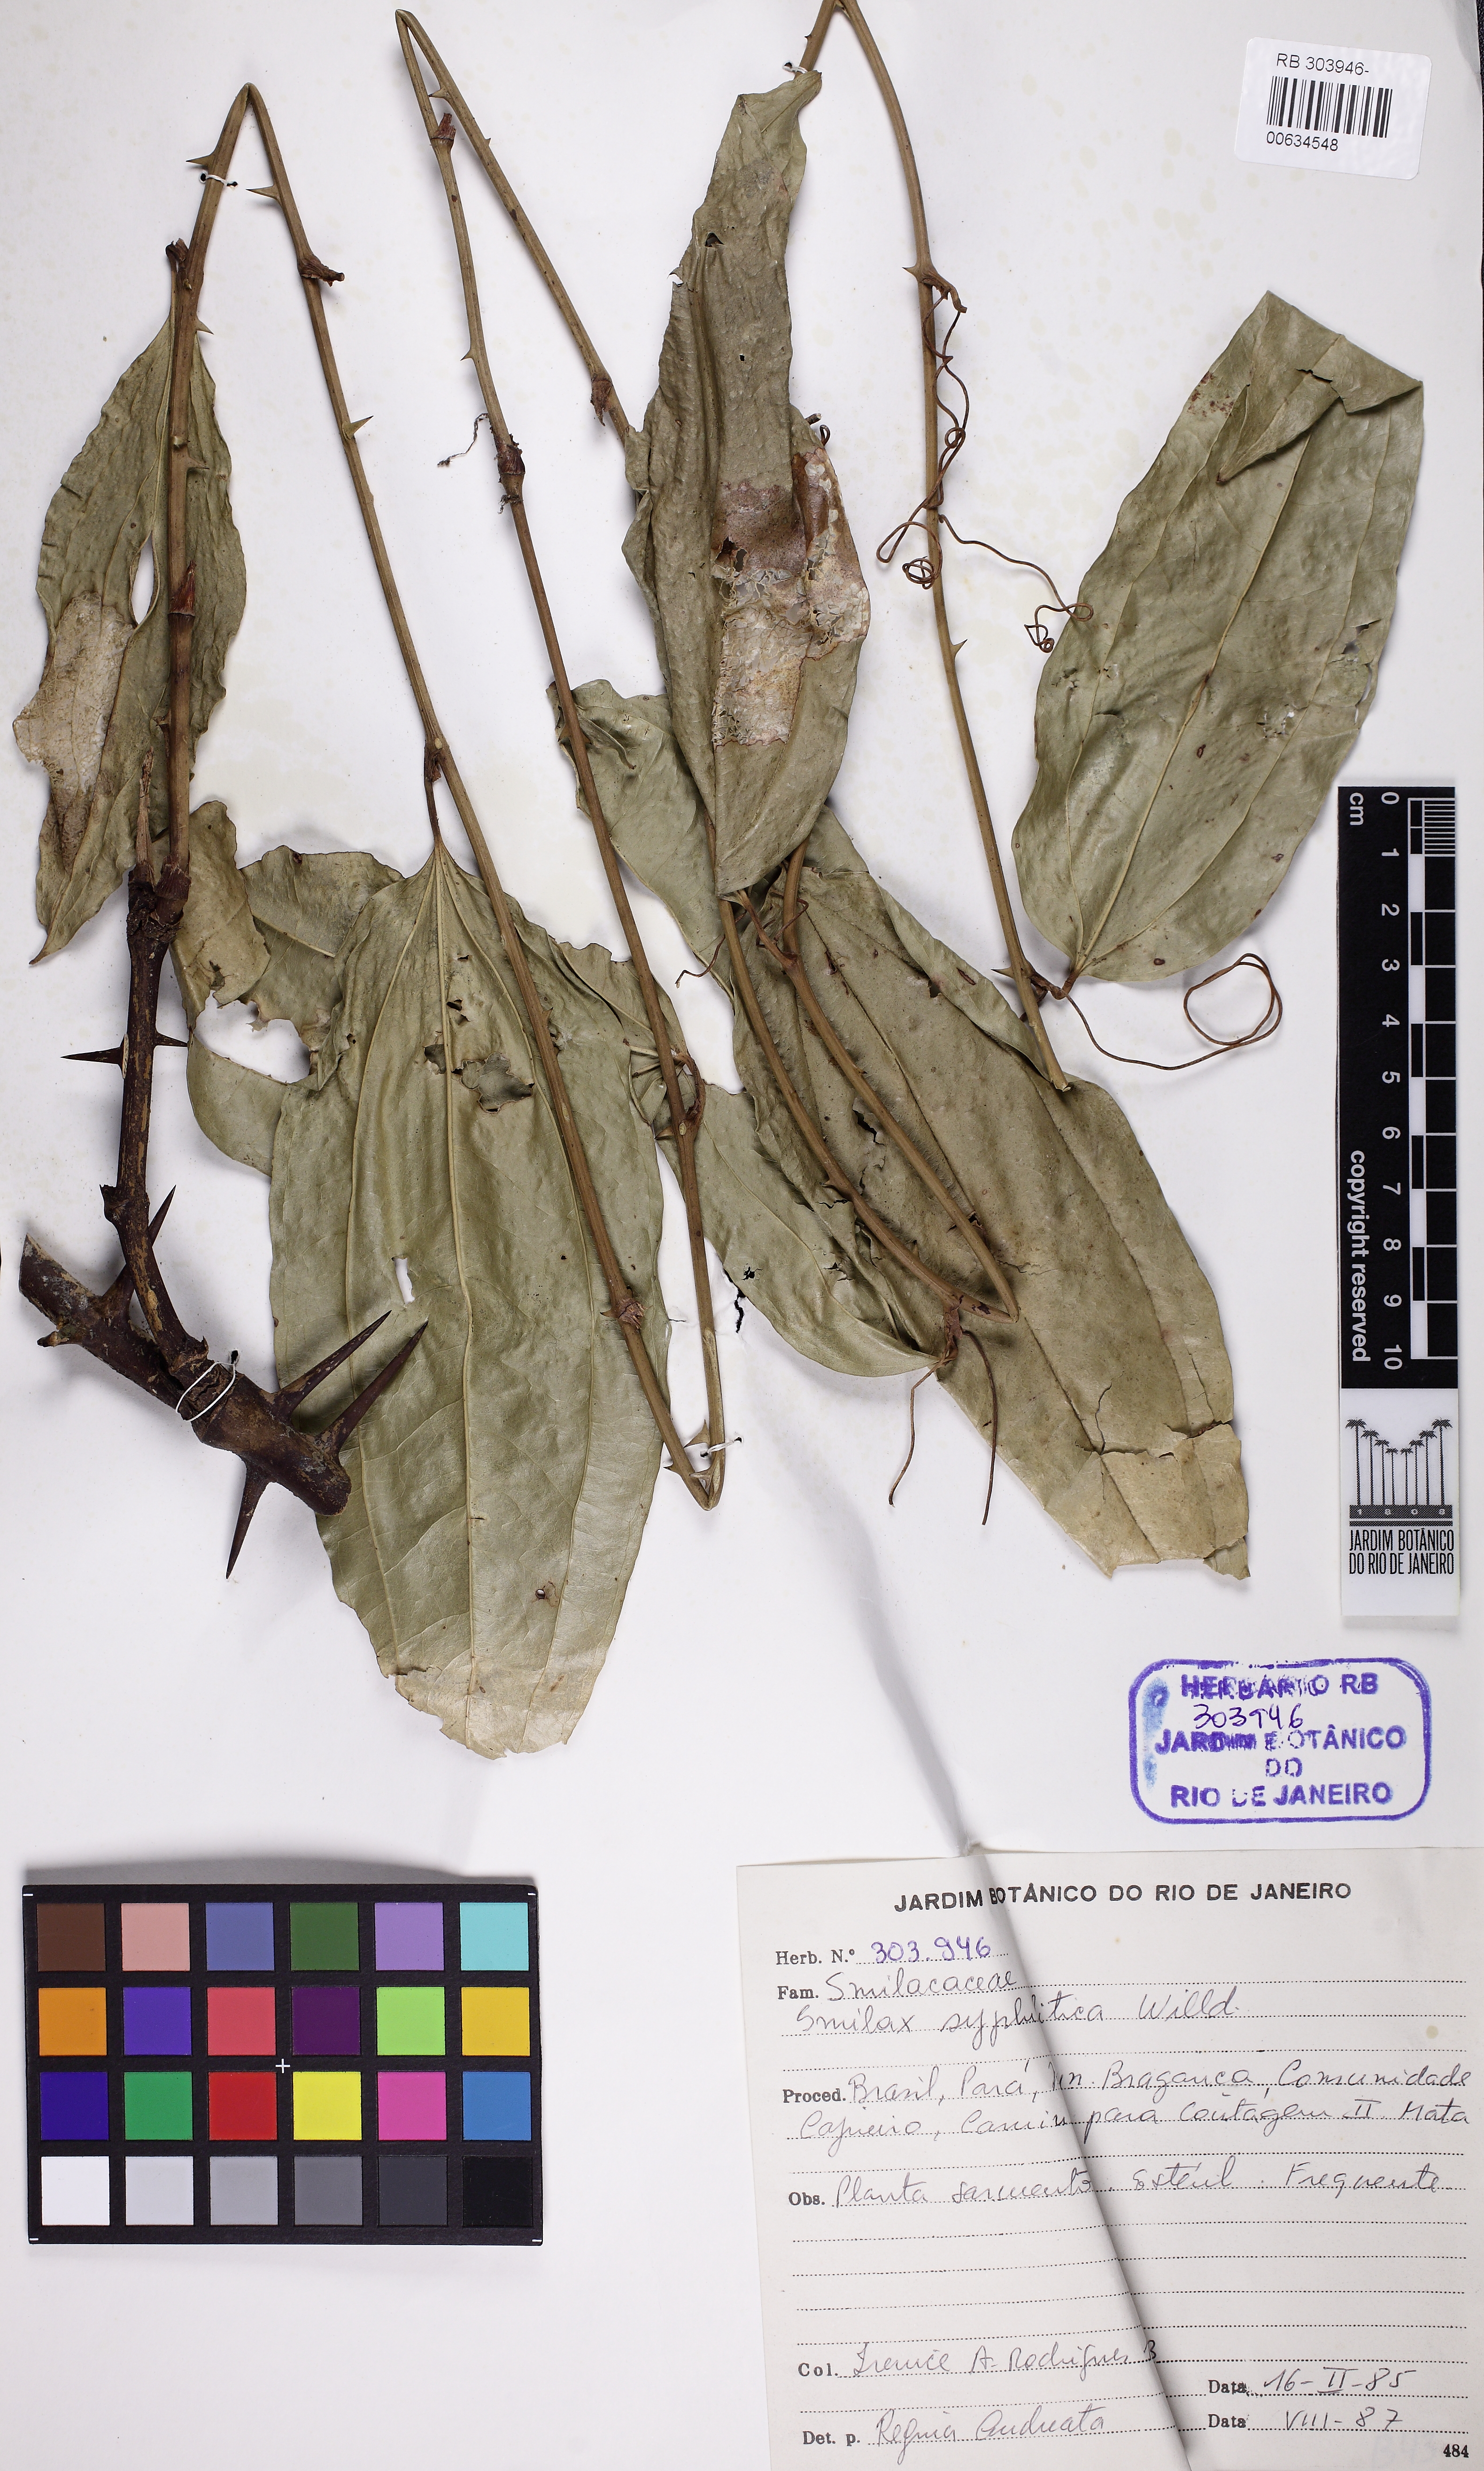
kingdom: Plantae
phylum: Tracheophyta
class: Liliopsida
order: Liliales
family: Smilacaceae
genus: Smilax
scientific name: Smilax siphilitica
